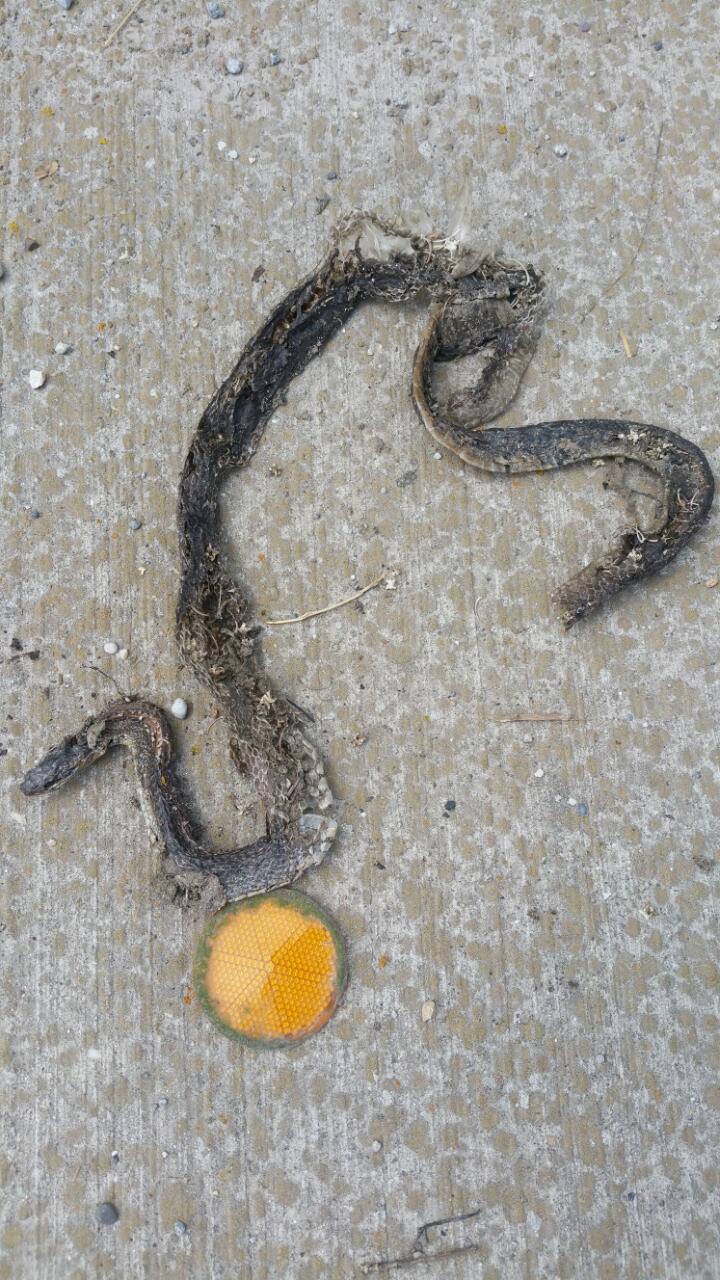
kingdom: Animalia
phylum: Chordata
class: Squamata
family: Colubridae
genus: Zamenis
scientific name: Zamenis longissimus
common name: Aesculapean snake
